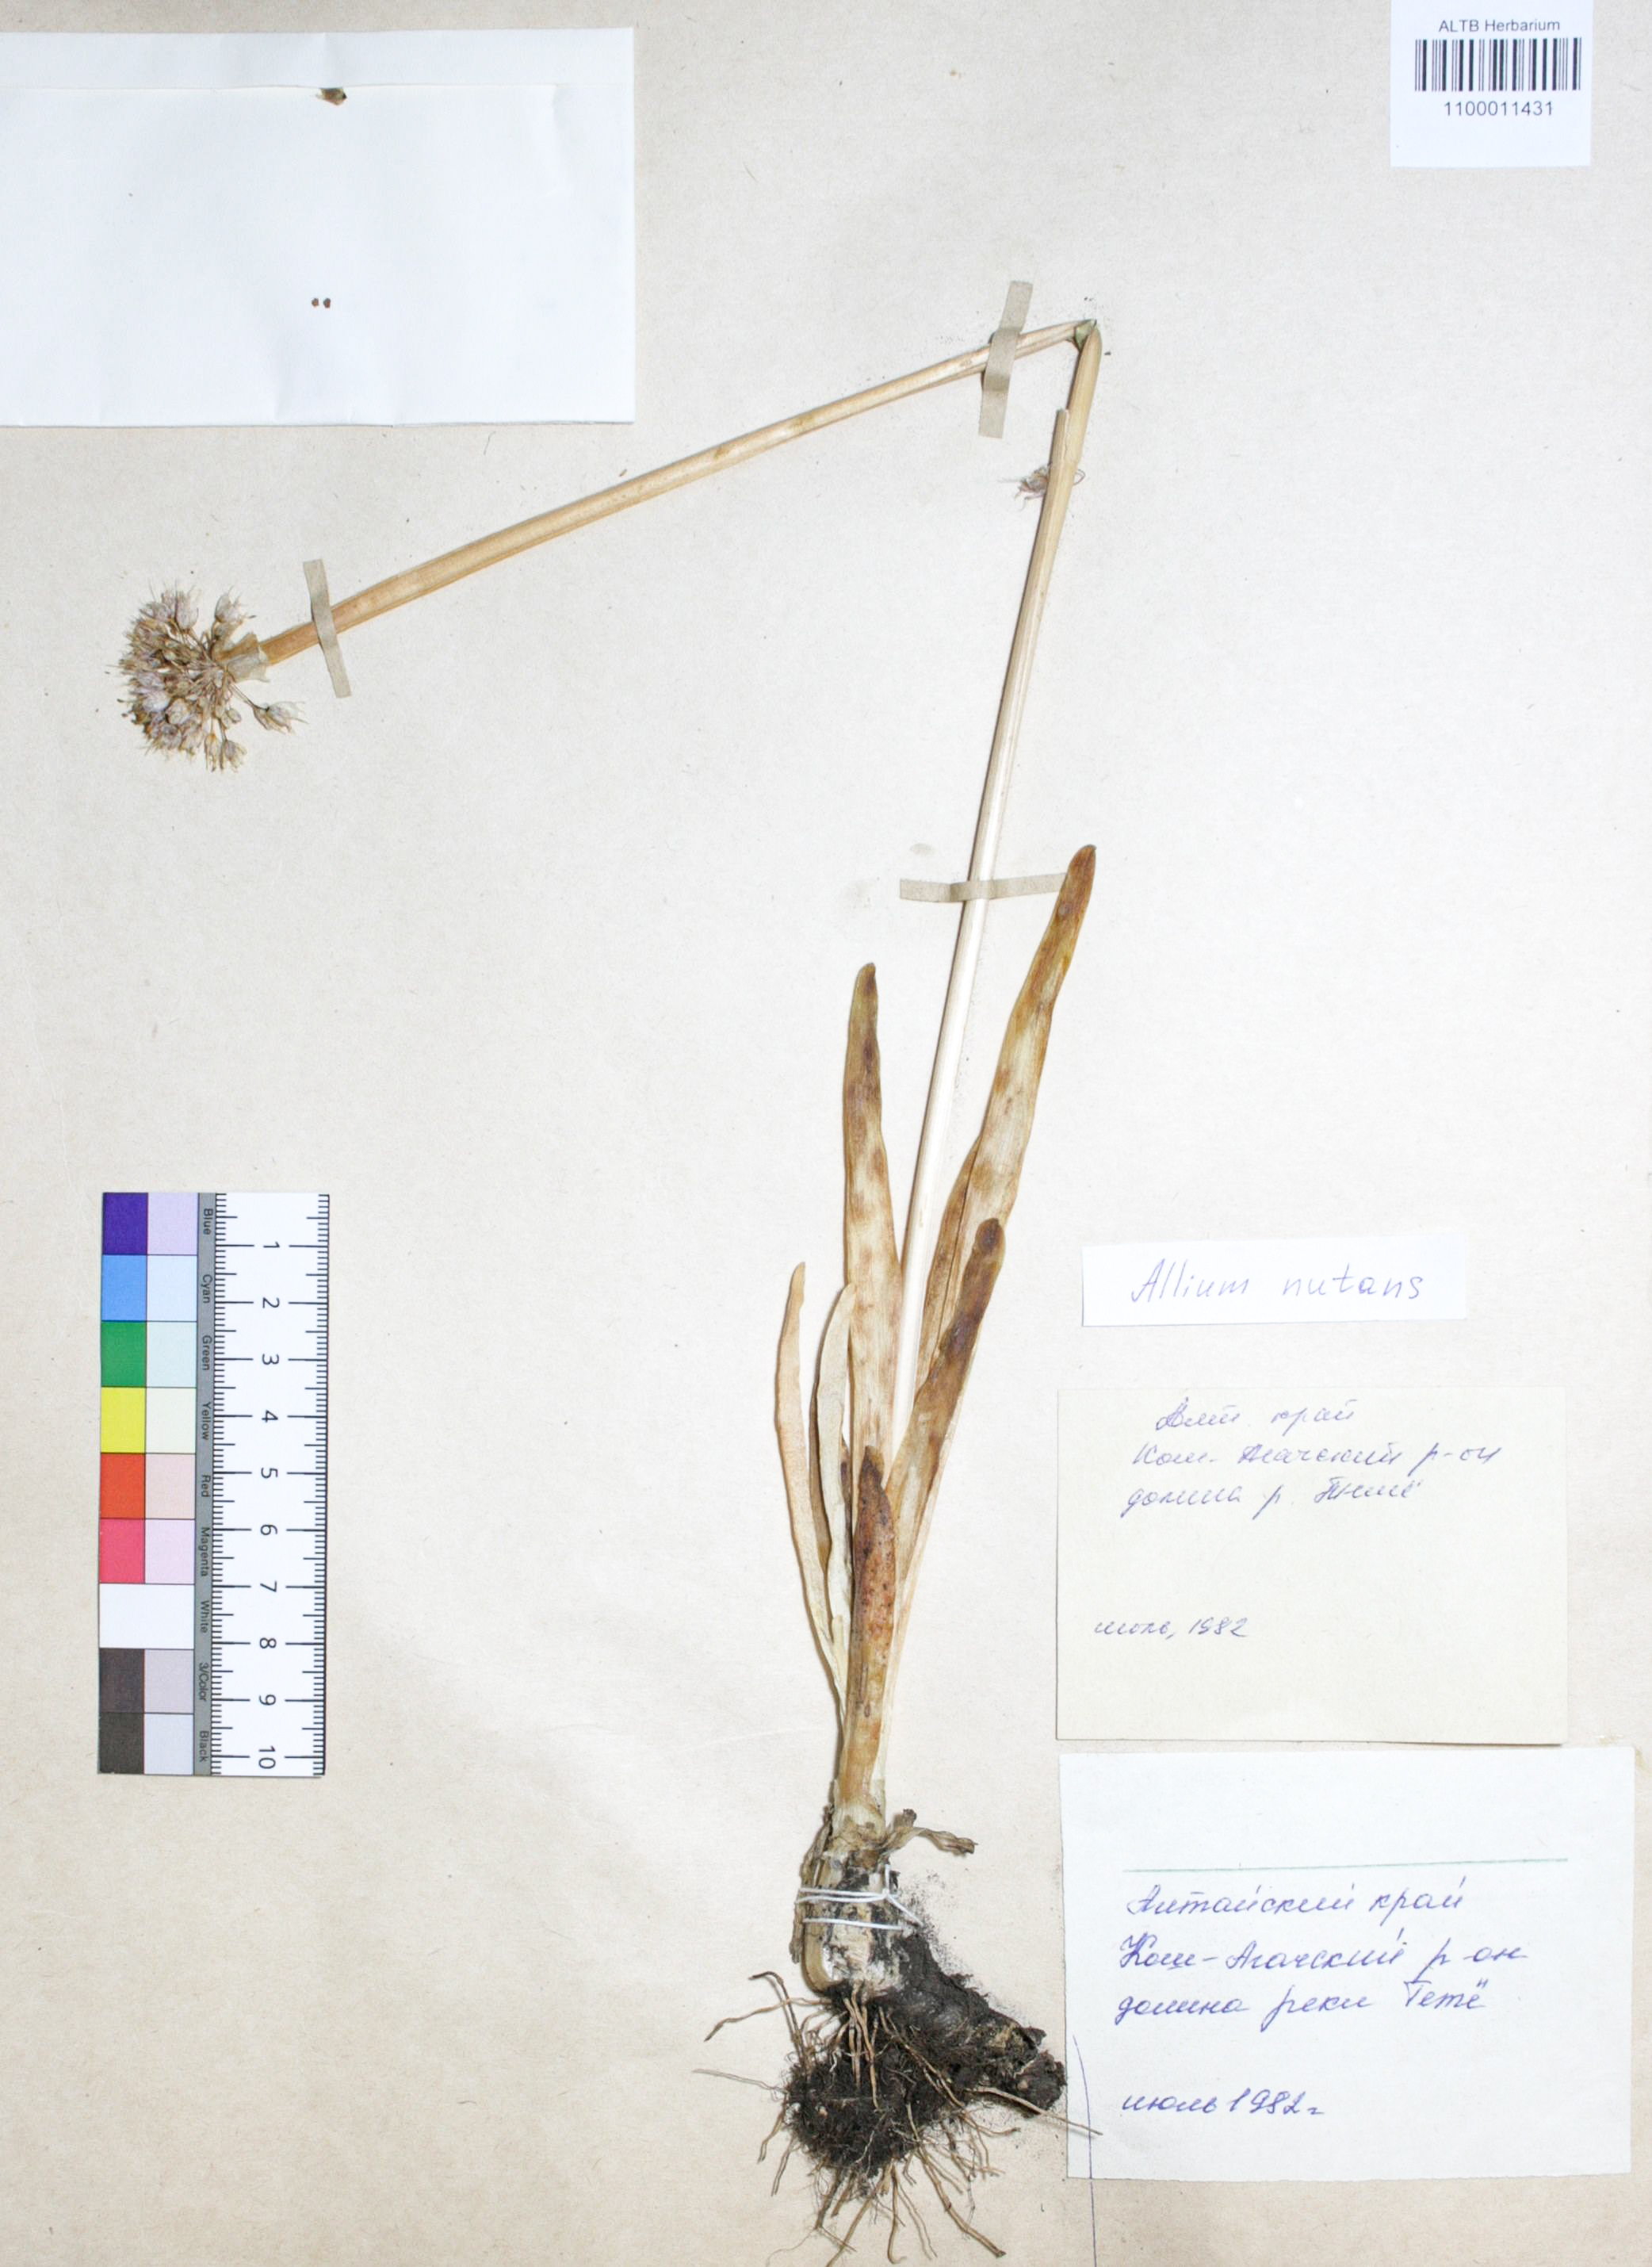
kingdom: Plantae
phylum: Tracheophyta
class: Liliopsida
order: Asparagales
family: Amaryllidaceae
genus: Allium
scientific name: Allium nutans
